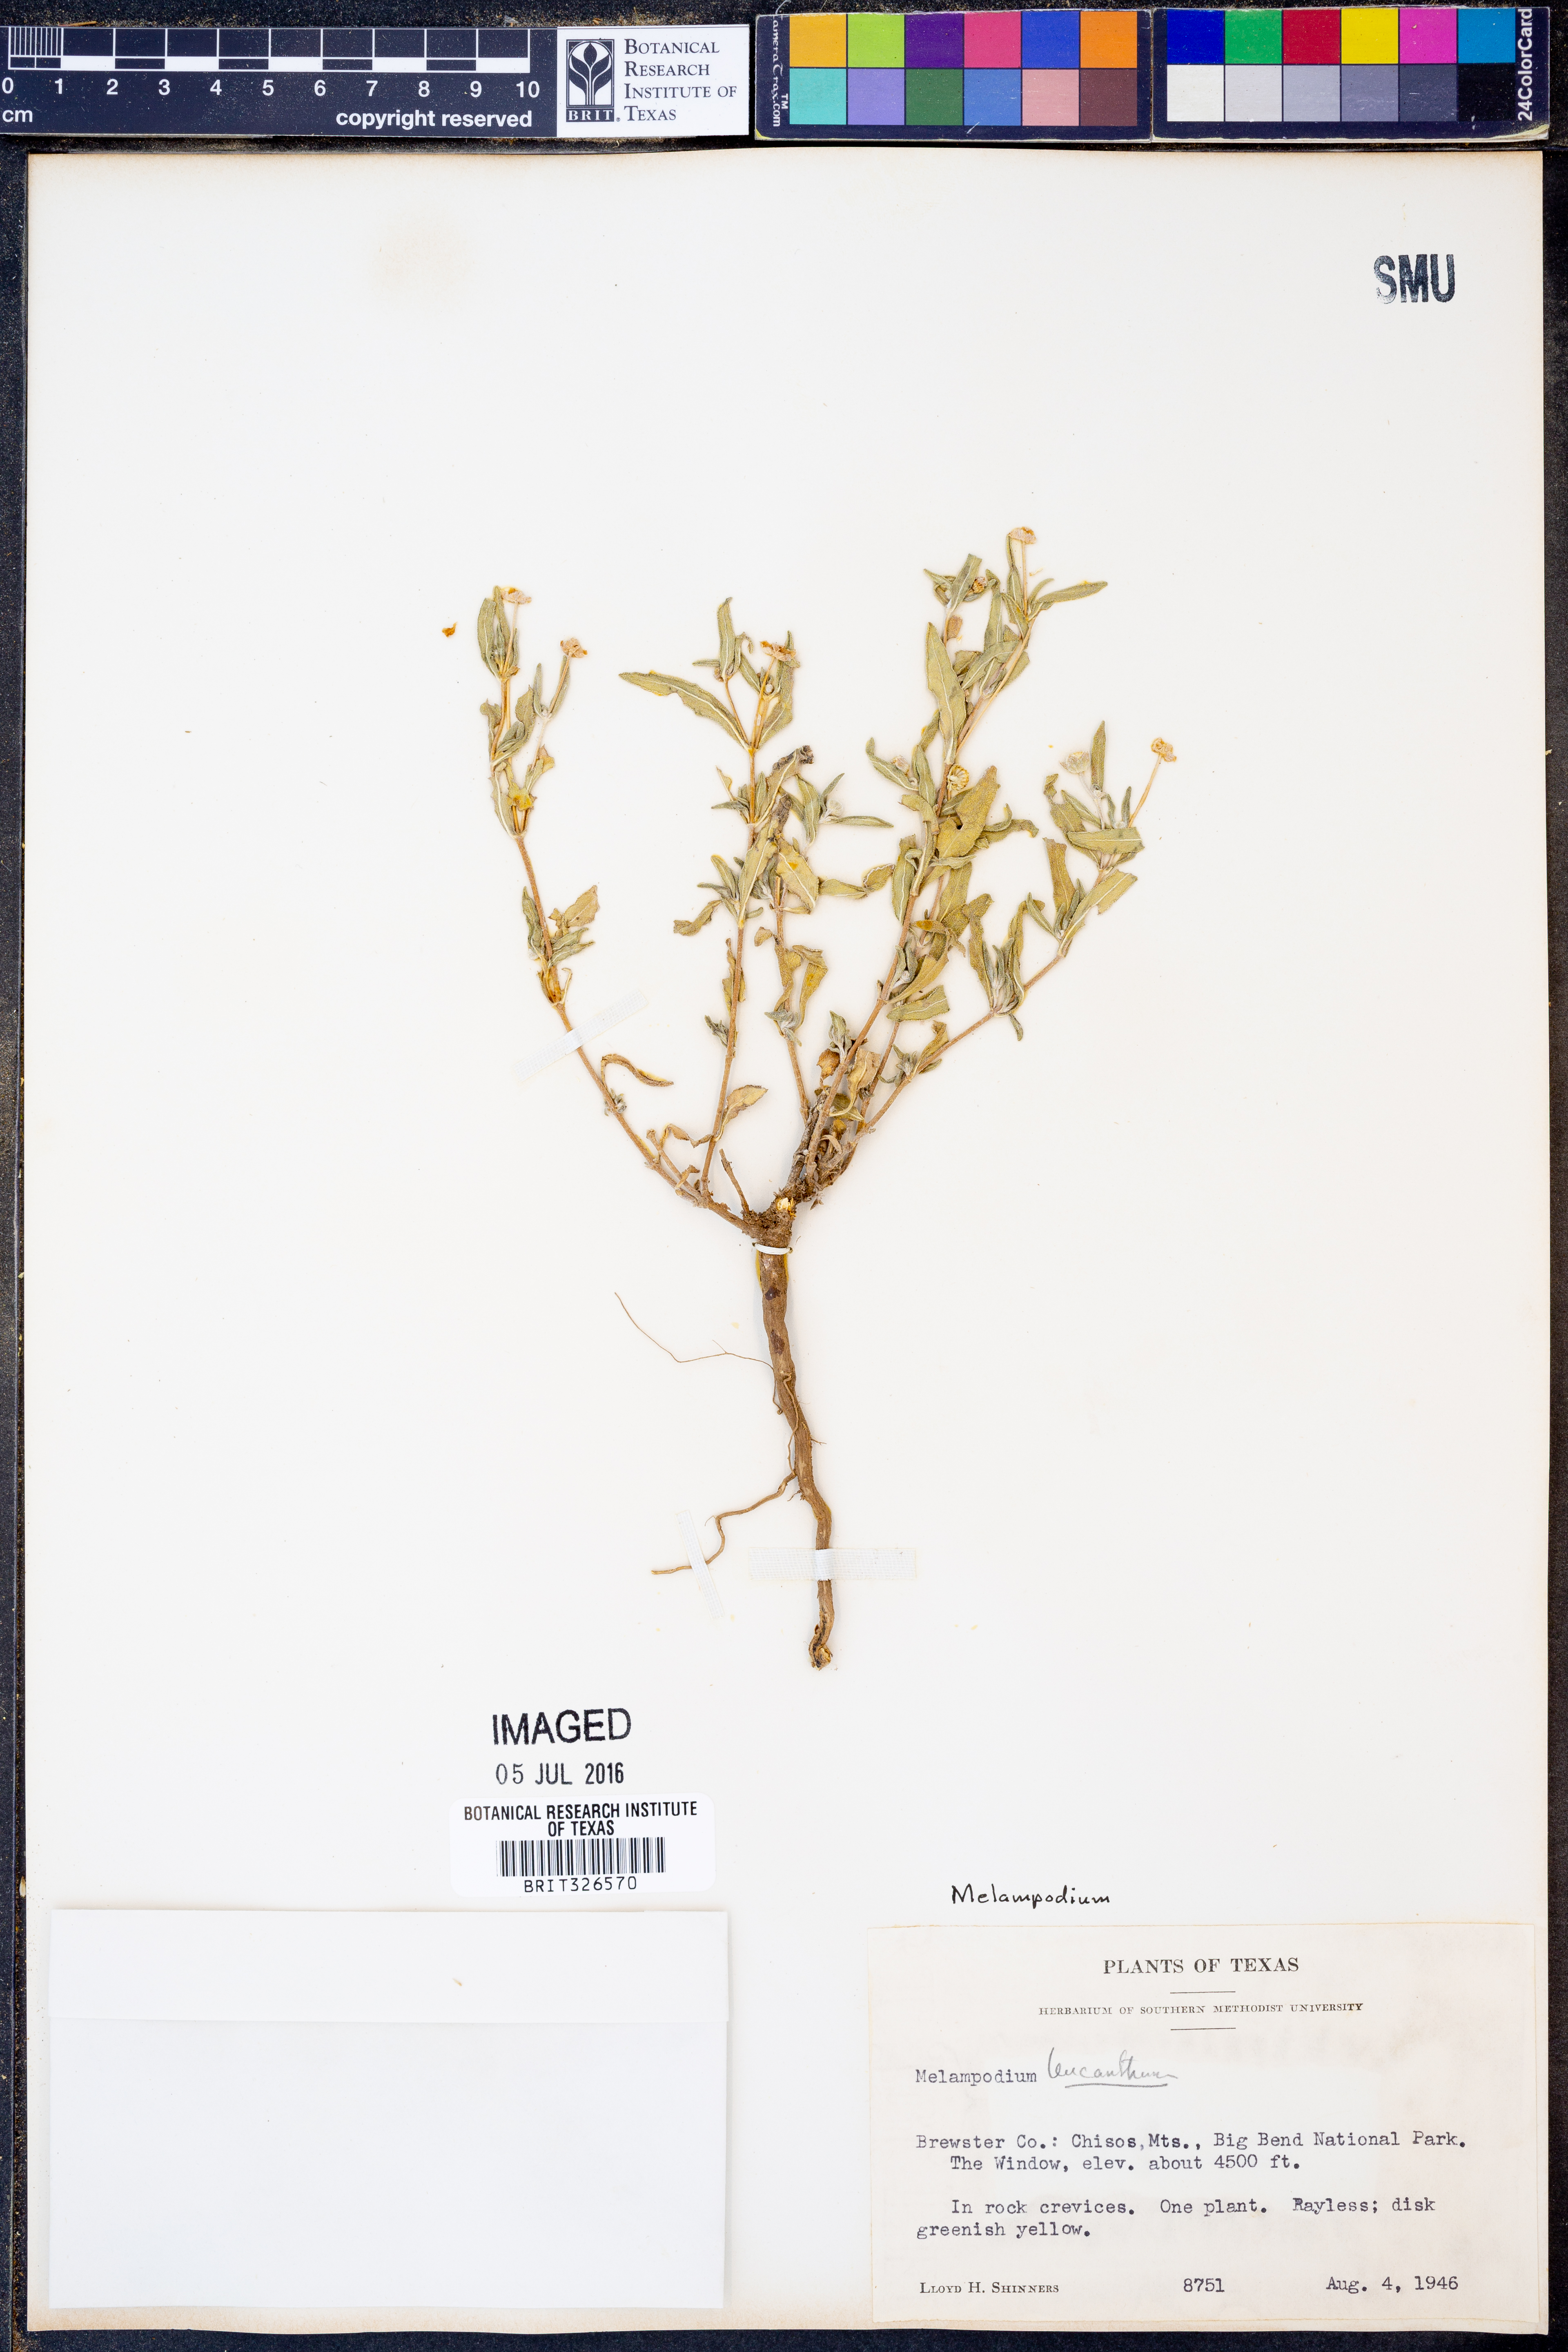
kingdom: Plantae
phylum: Tracheophyta
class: Magnoliopsida
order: Asterales
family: Asteraceae
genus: Melampodium
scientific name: Melampodium leucanthum
